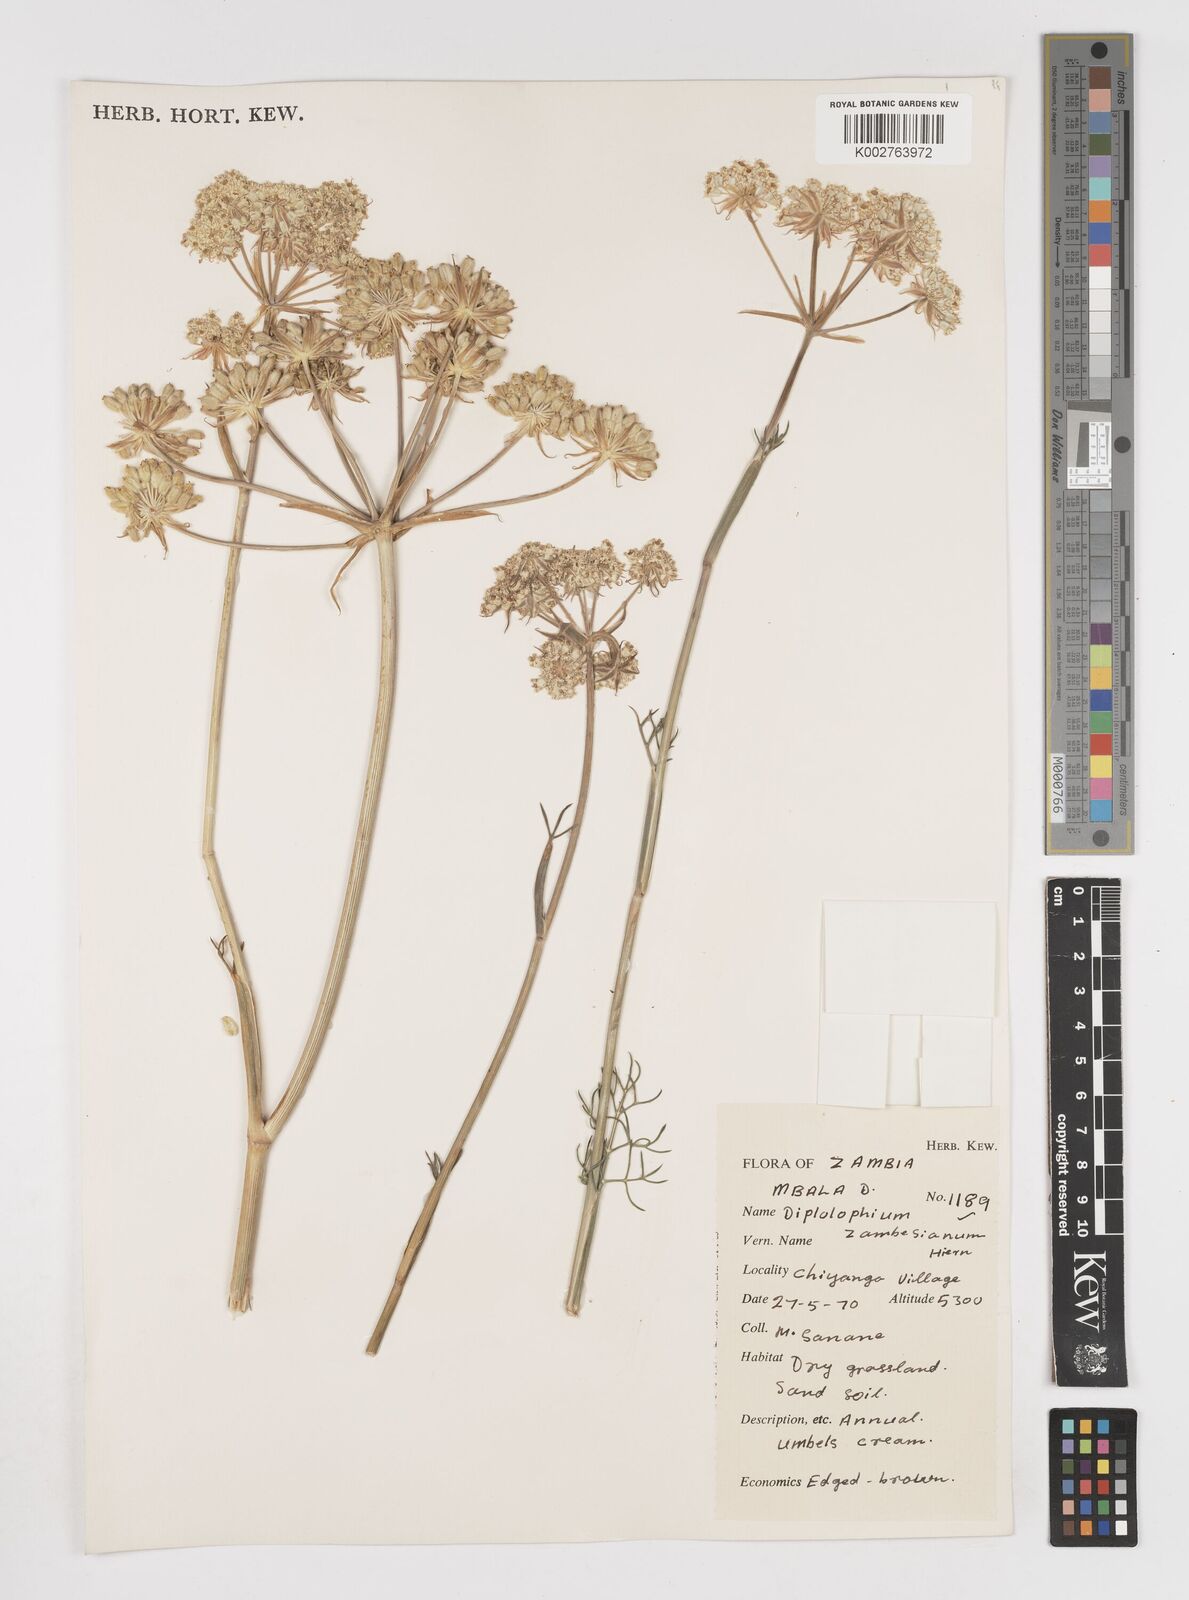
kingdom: Plantae
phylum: Tracheophyta
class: Magnoliopsida
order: Apiales
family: Apiaceae
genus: Diplolophium
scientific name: Diplolophium zambesianum
